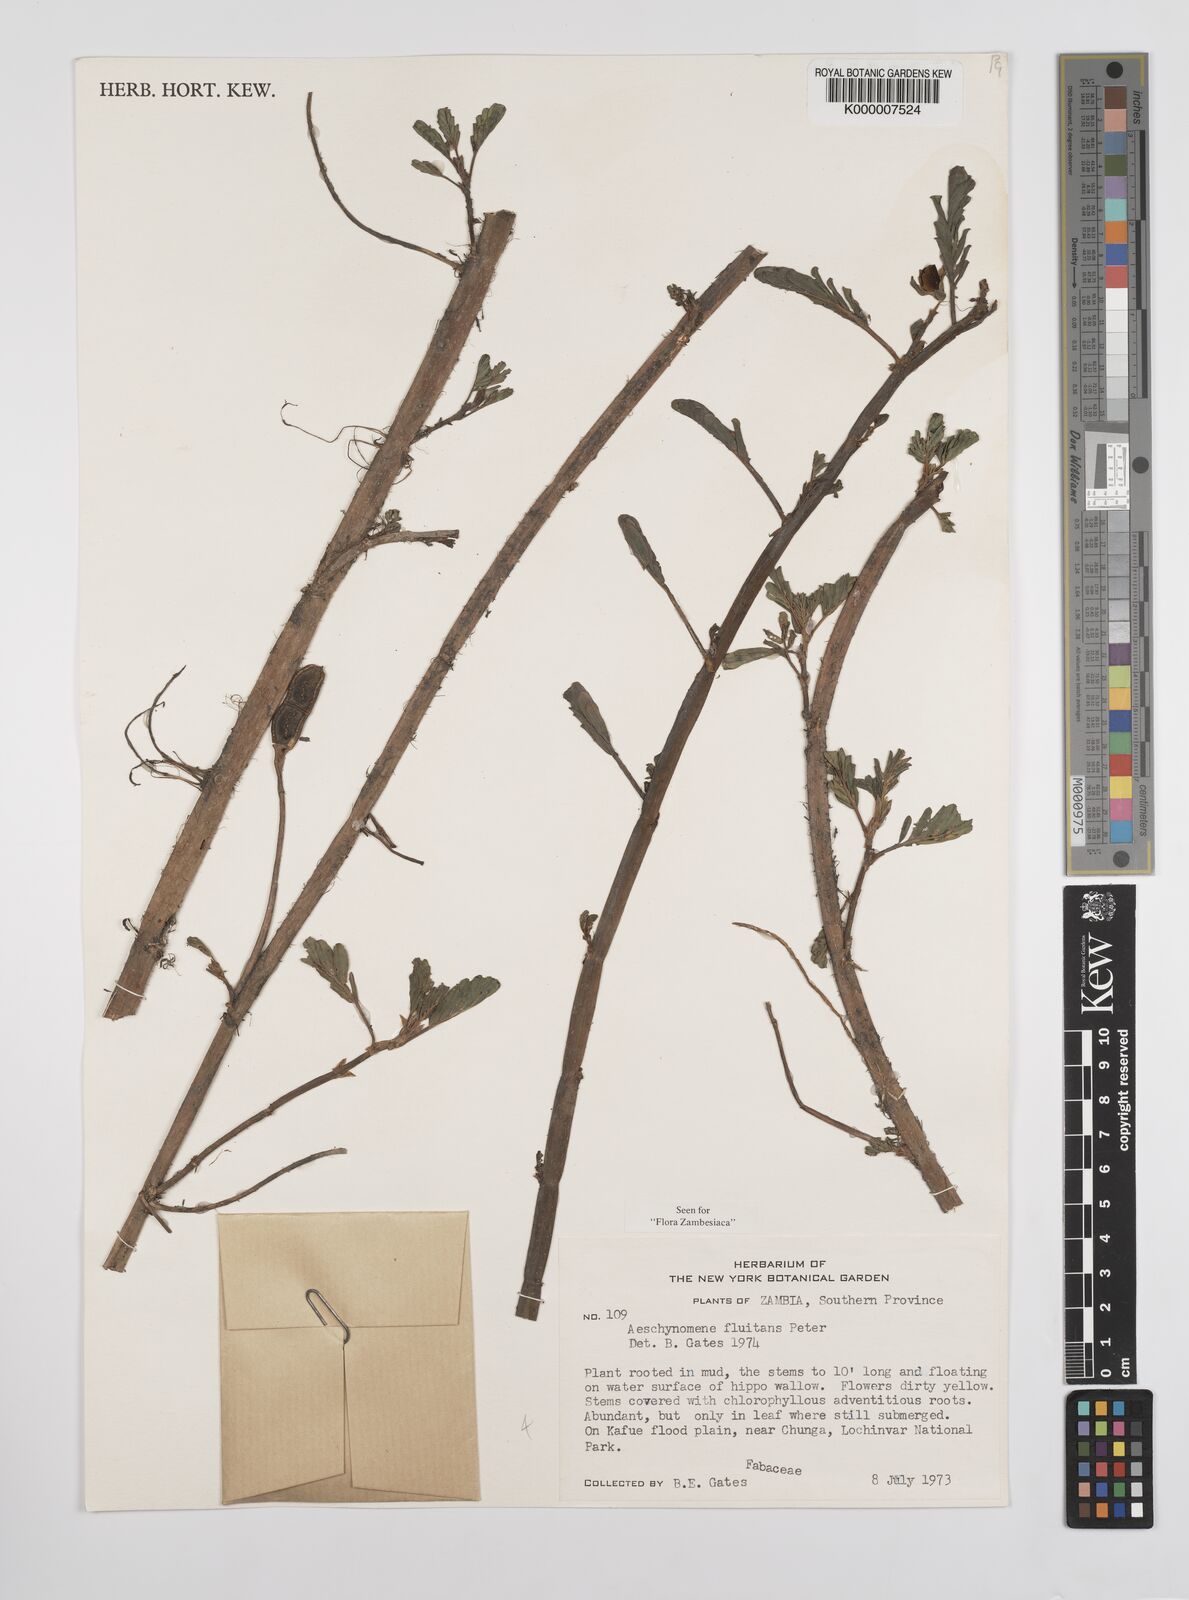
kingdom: Plantae
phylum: Tracheophyta
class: Magnoliopsida
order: Fabales
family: Fabaceae
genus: Aeschynomene
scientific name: Aeschynomene fluitans
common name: Giant water sensitive plant
